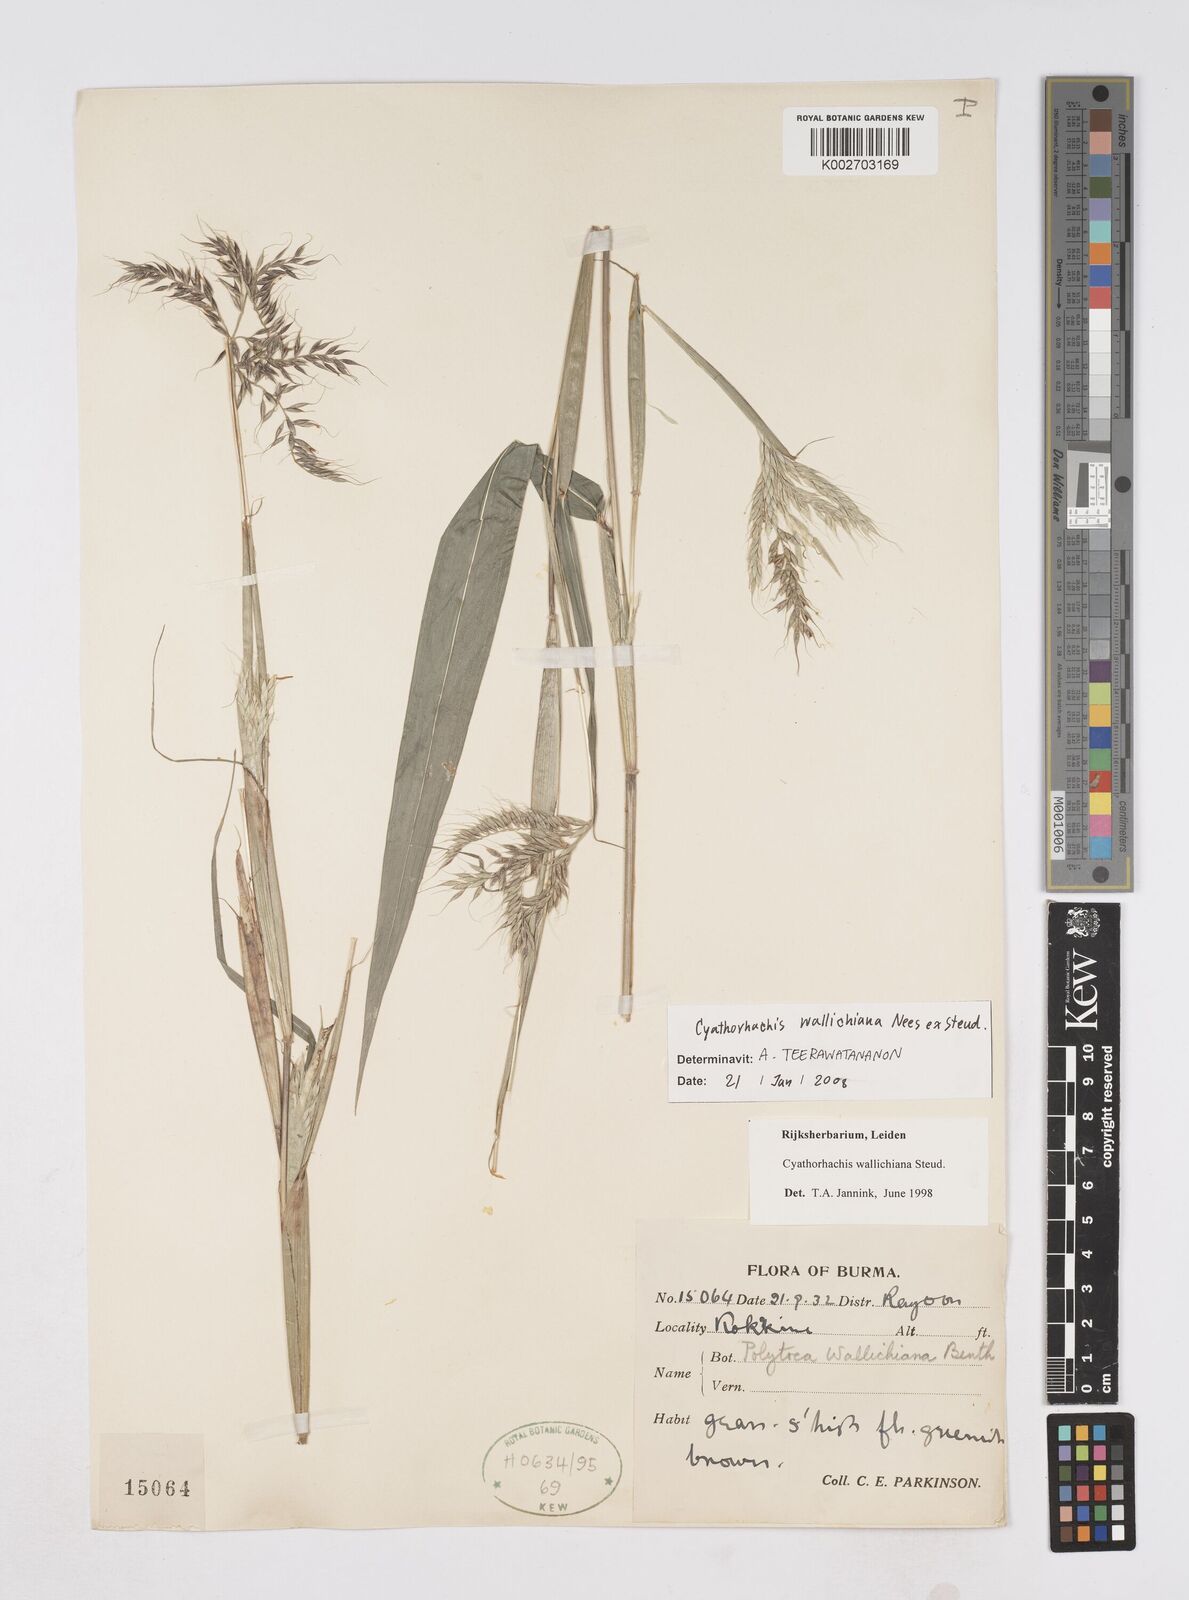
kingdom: Plantae
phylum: Tracheophyta
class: Liliopsida
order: Poales
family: Poaceae
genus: Polytoca
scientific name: Polytoca wallichiana
